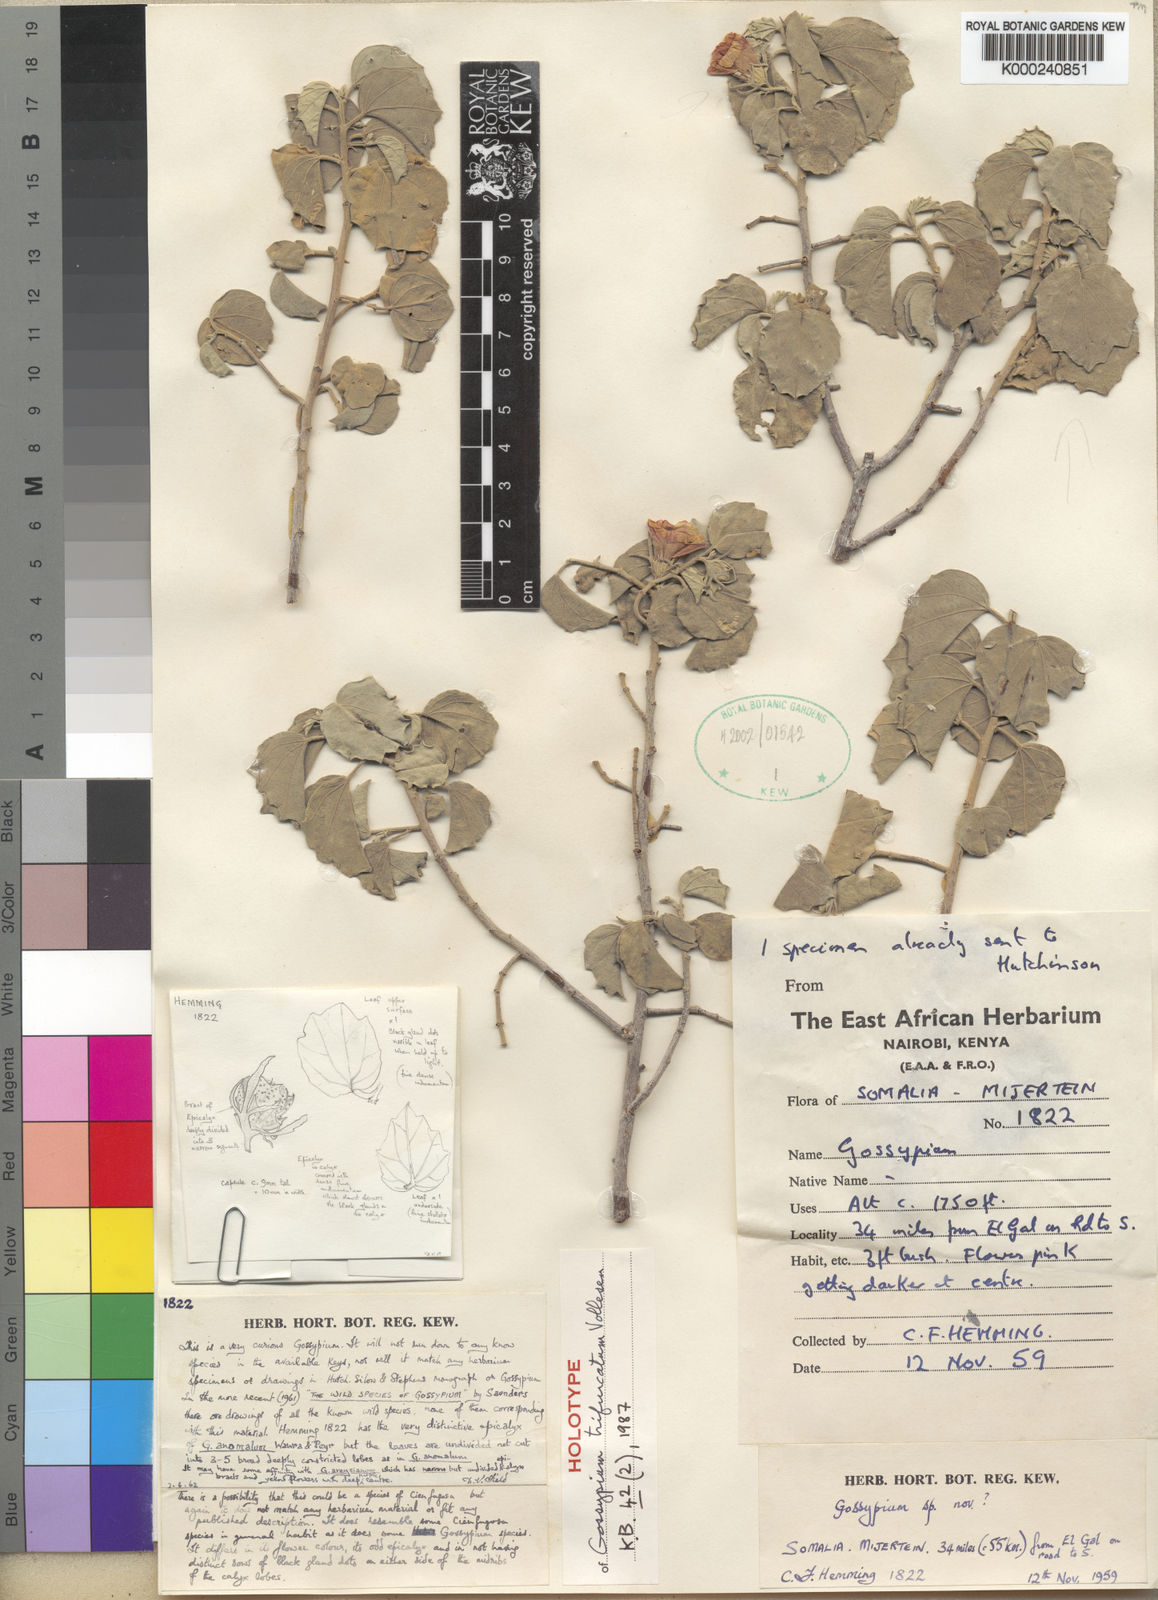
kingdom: Plantae
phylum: Tracheophyta
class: Magnoliopsida
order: Malvales
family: Malvaceae
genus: Gossypium
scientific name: Gossypium trifurcatum
